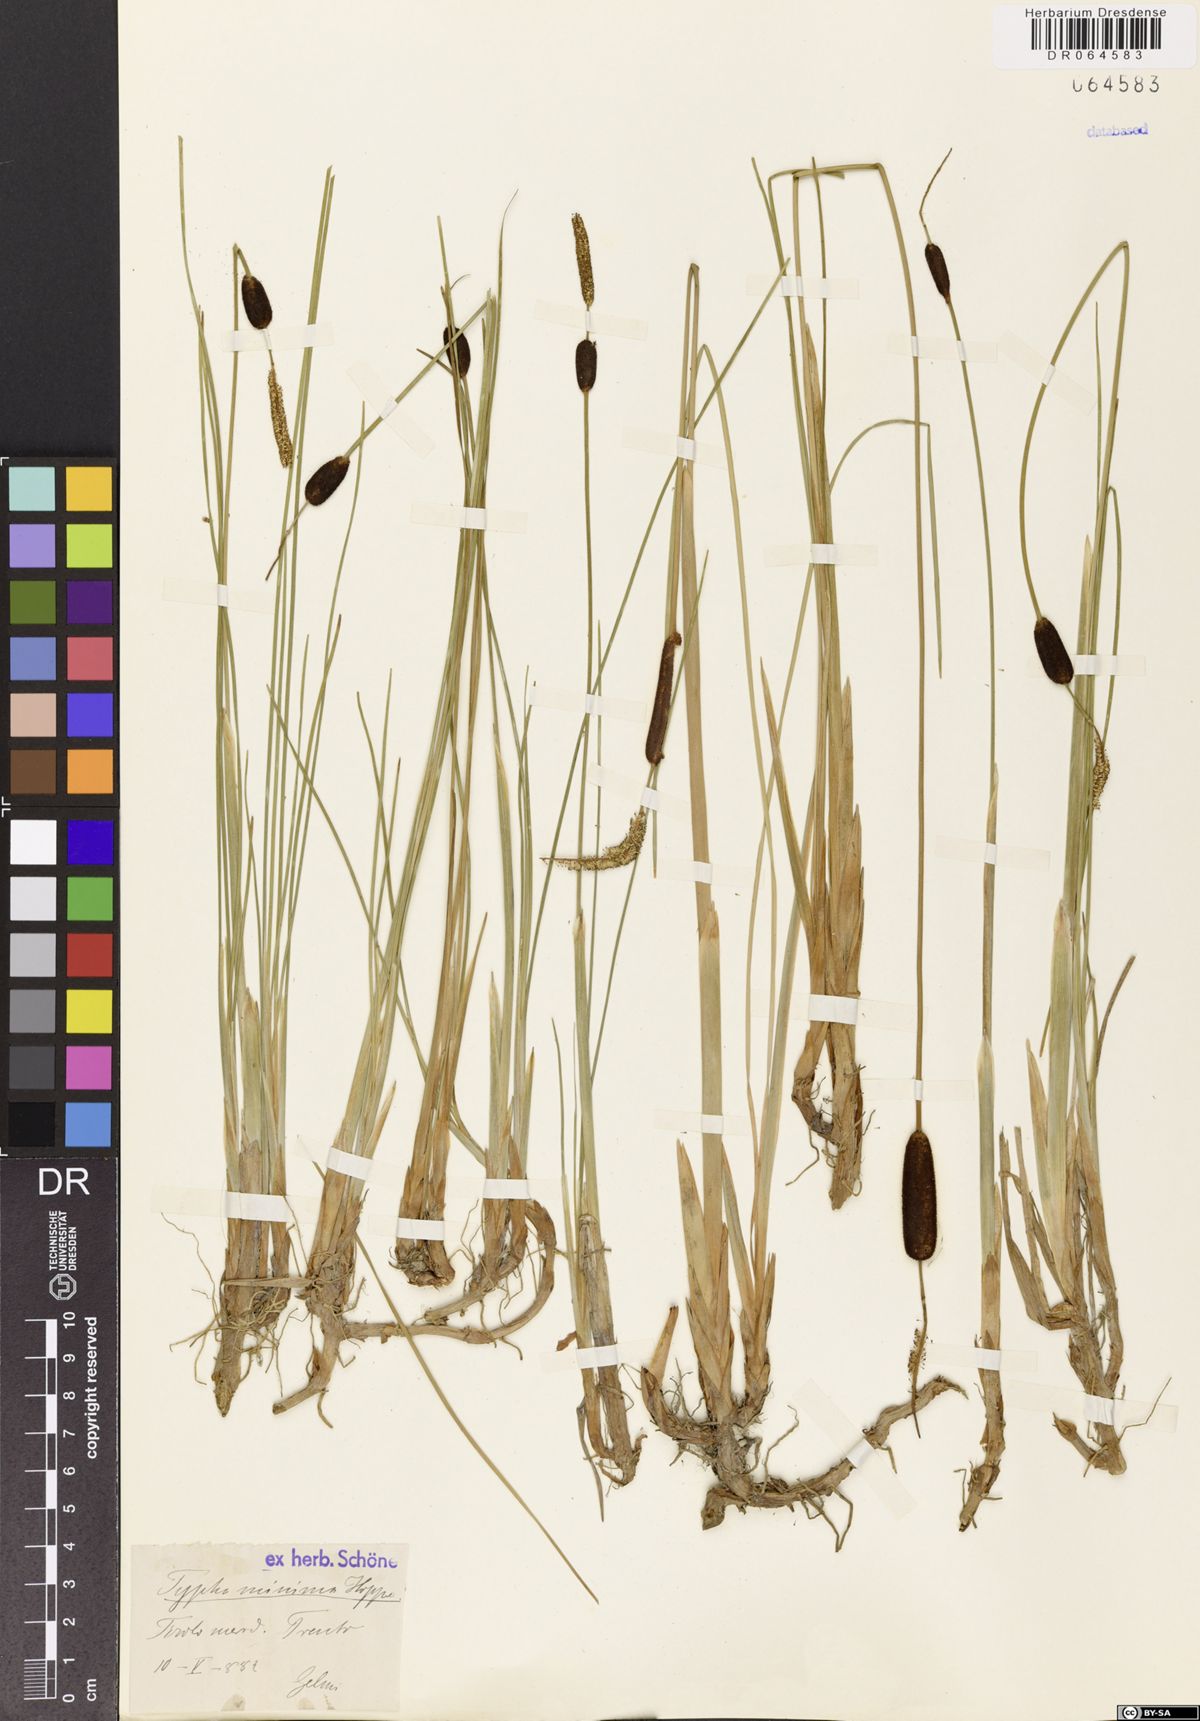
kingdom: Plantae
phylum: Tracheophyta
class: Liliopsida
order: Poales
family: Typhaceae
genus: Typha
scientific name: Typha minima
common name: Dwarf bulrush
